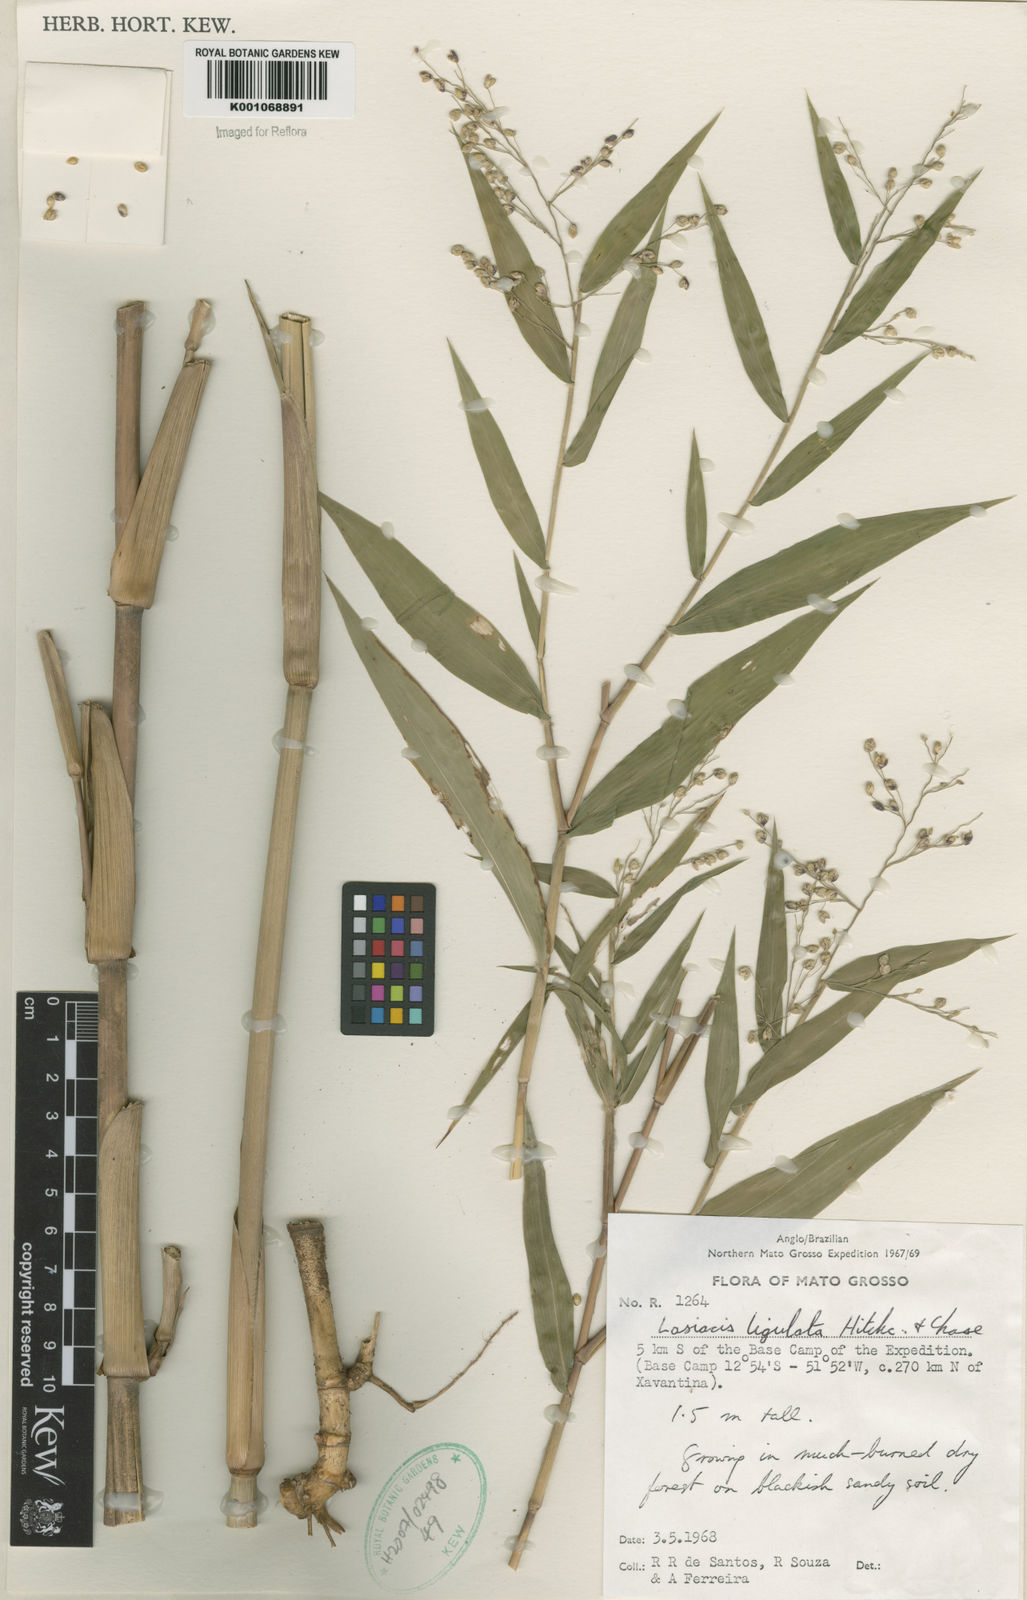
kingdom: Plantae
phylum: Tracheophyta
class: Liliopsida
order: Poales
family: Poaceae
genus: Lasiacis
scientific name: Lasiacis ligulata
